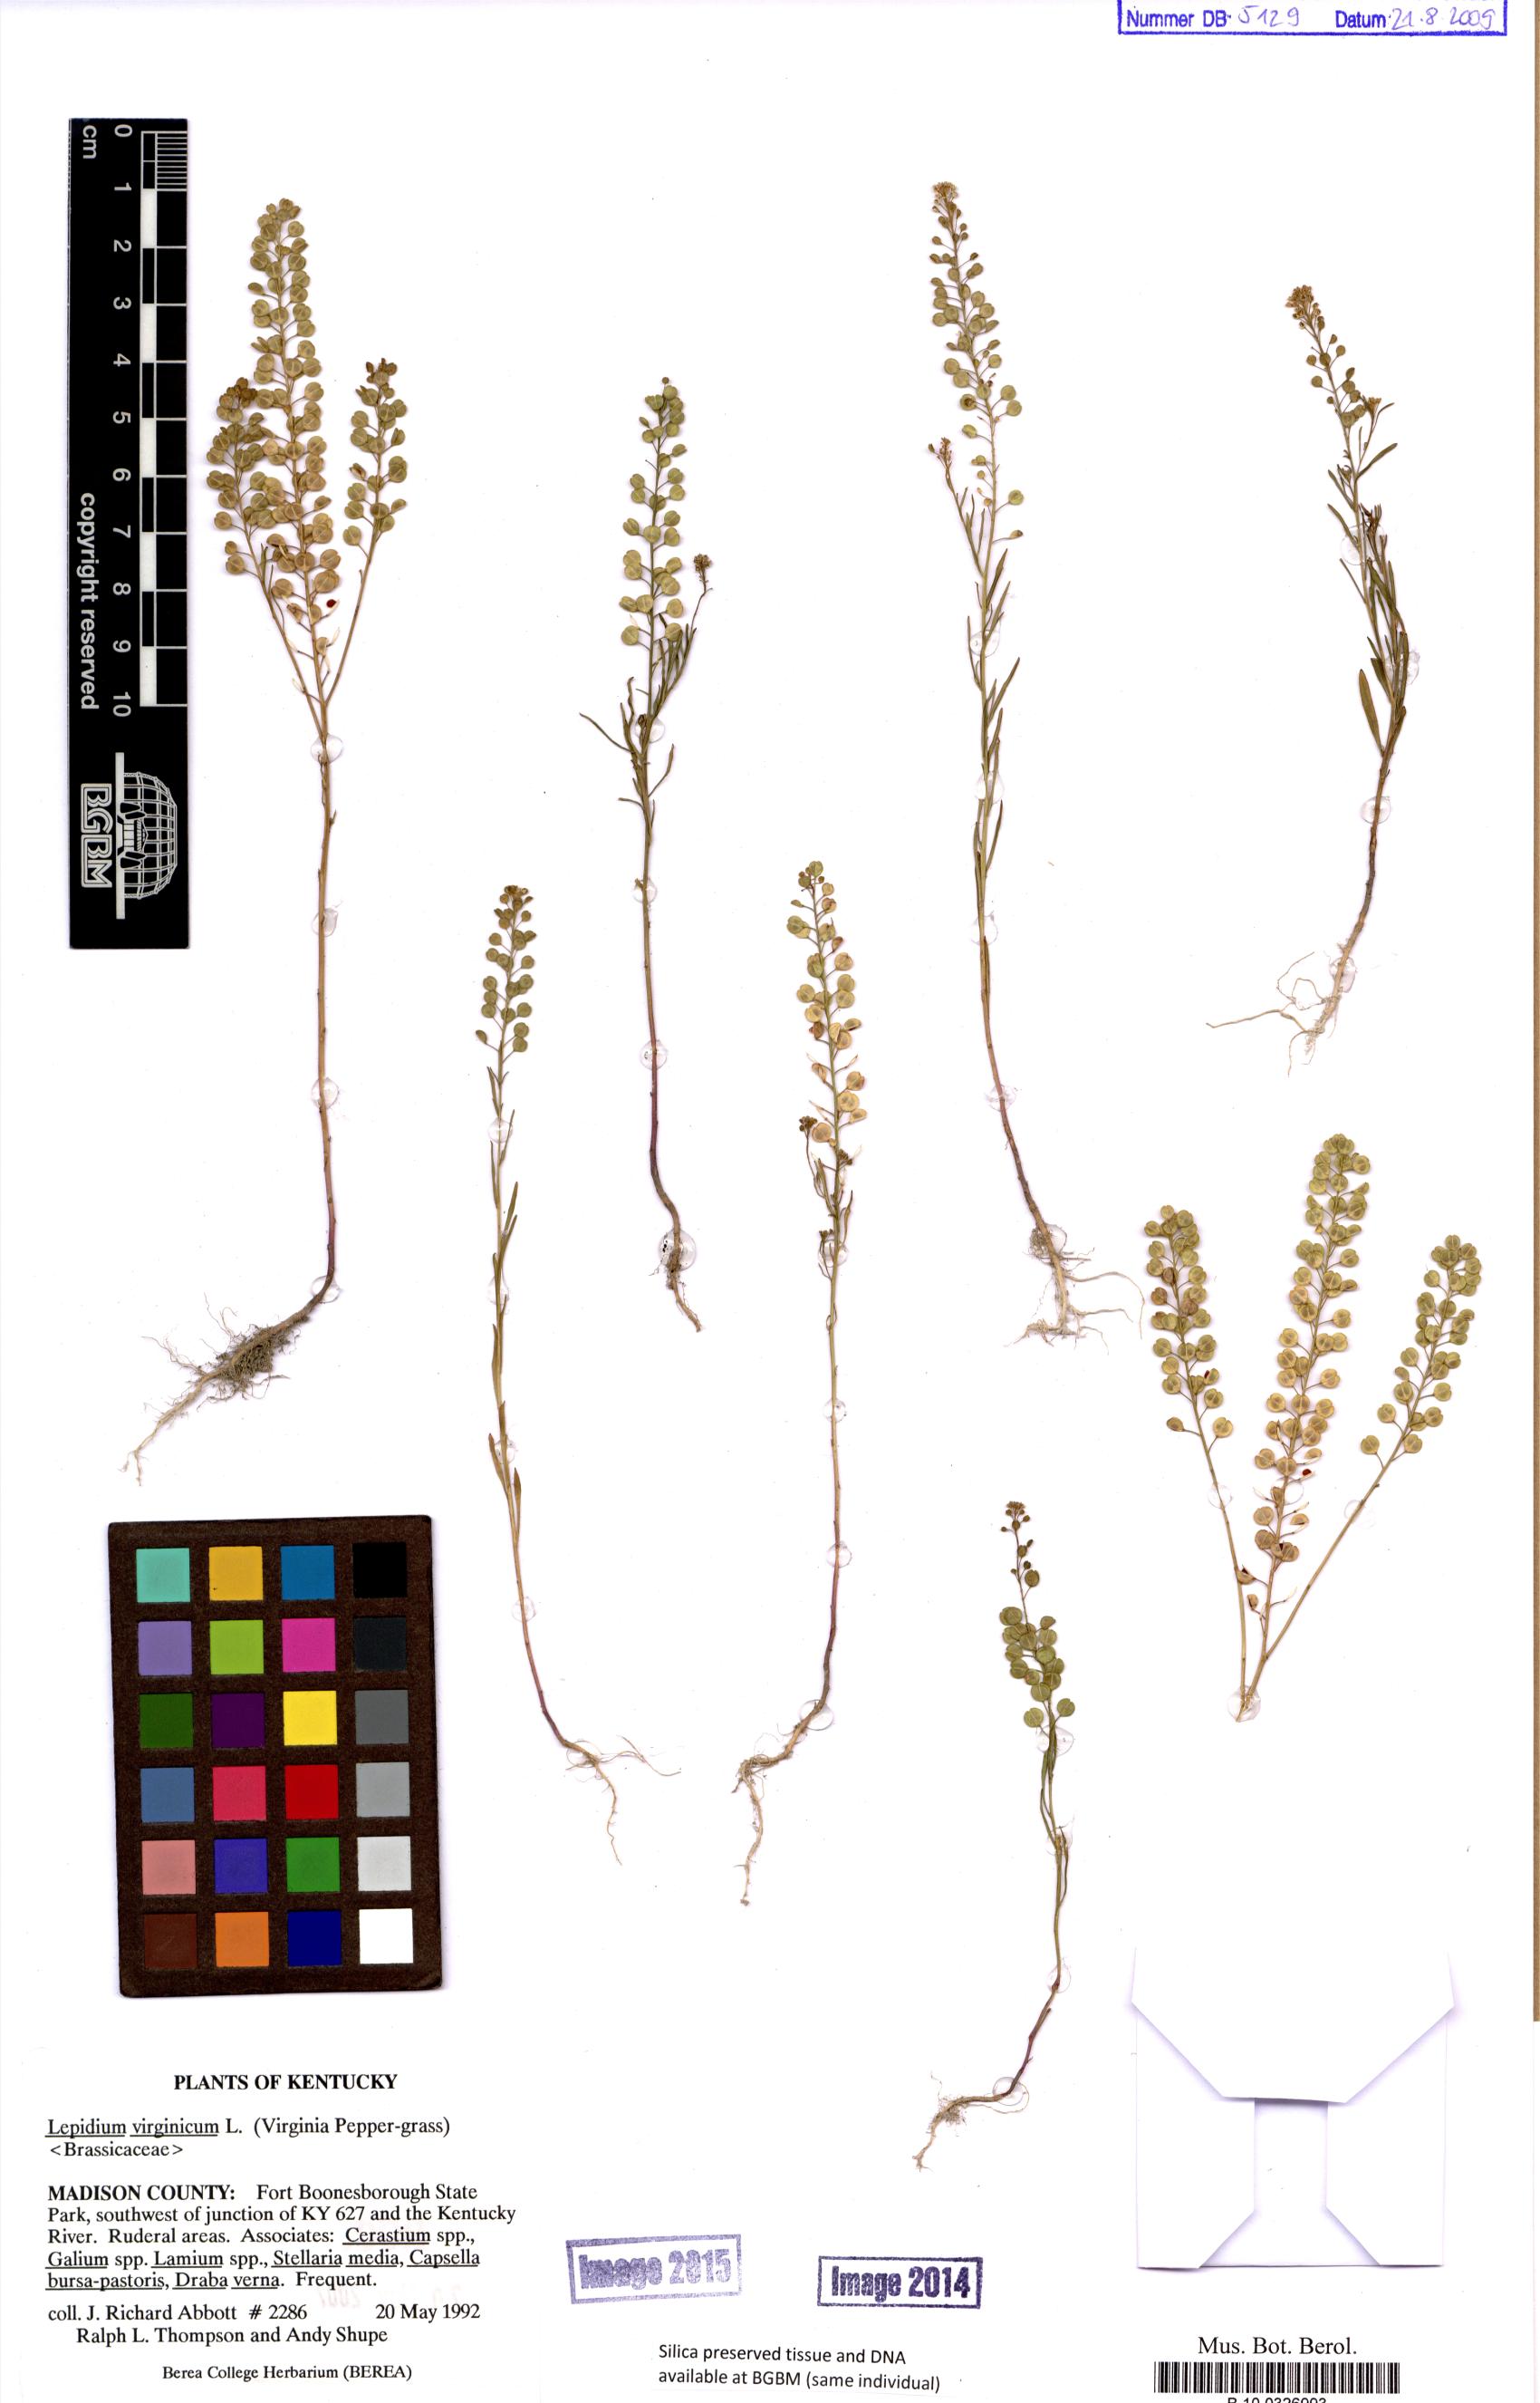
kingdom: Plantae
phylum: Tracheophyta
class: Magnoliopsida
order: Brassicales
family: Brassicaceae
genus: Lepidium
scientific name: Lepidium virginicum
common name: Least pepperwort
